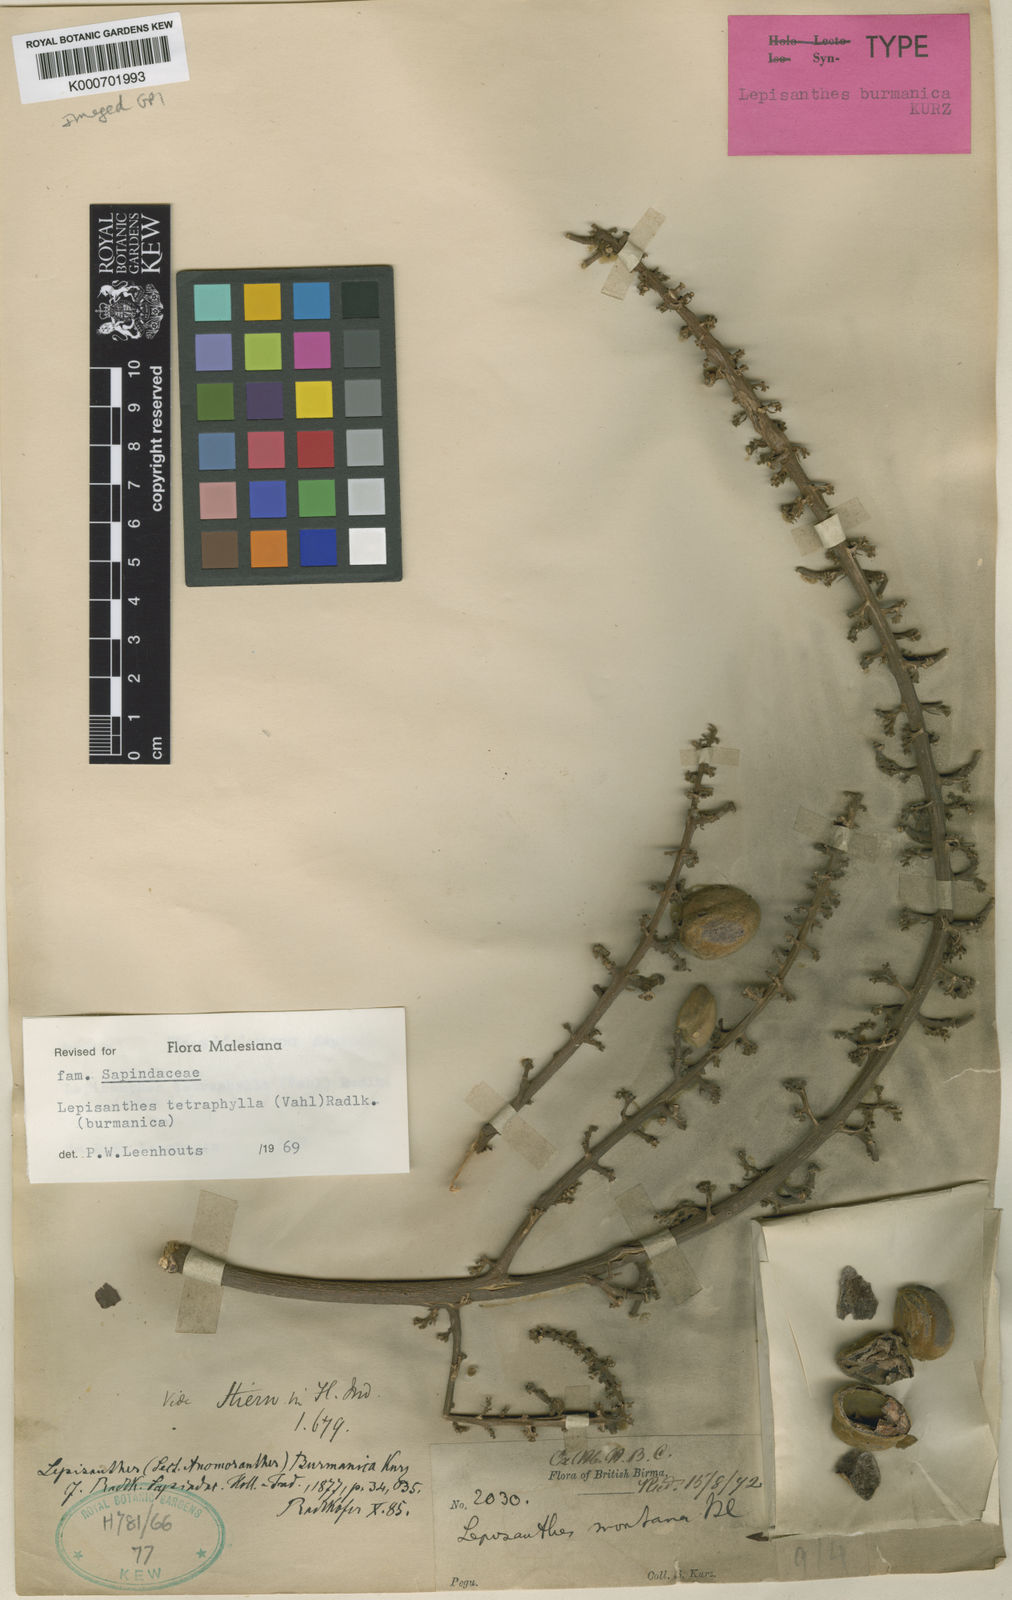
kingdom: Plantae
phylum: Tracheophyta
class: Magnoliopsida
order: Sapindales
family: Sapindaceae
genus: Lepisanthes
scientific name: Lepisanthes tetraphylla
